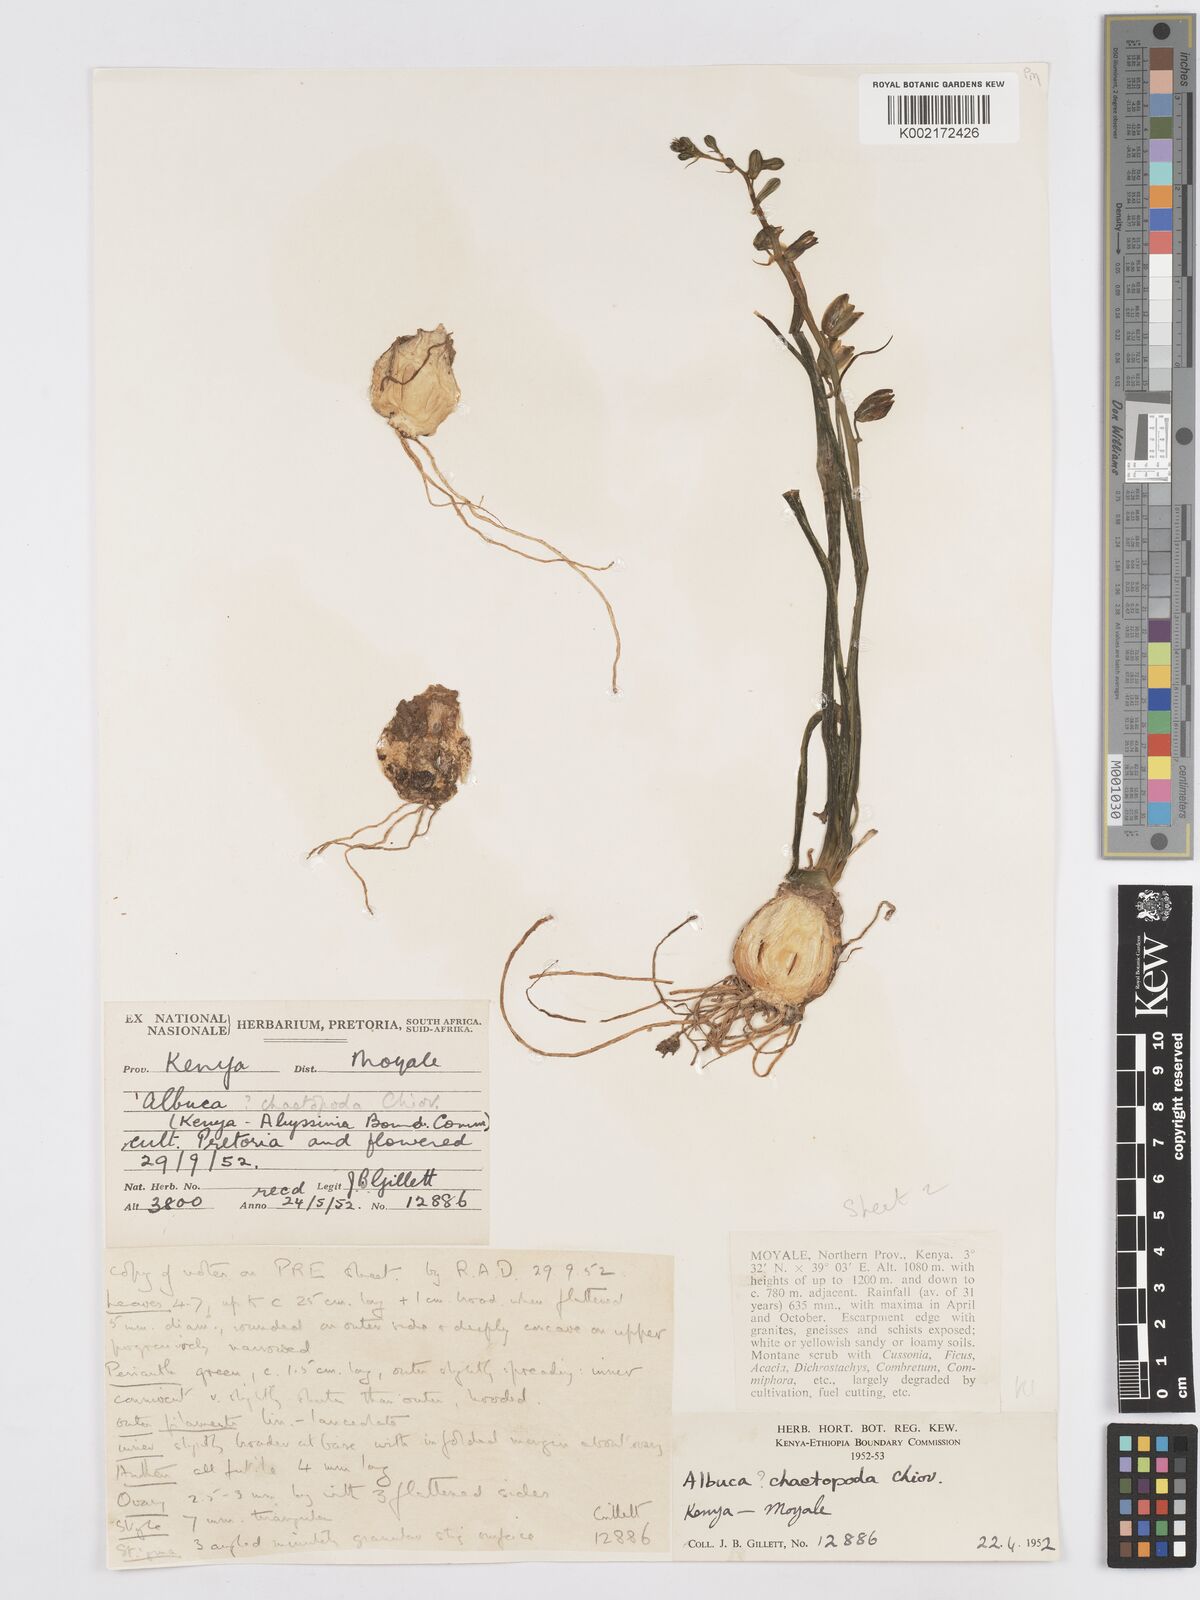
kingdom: Plantae
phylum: Tracheophyta
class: Liliopsida
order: Asparagales
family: Asparagaceae
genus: Albuca
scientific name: Albuca abyssinica
